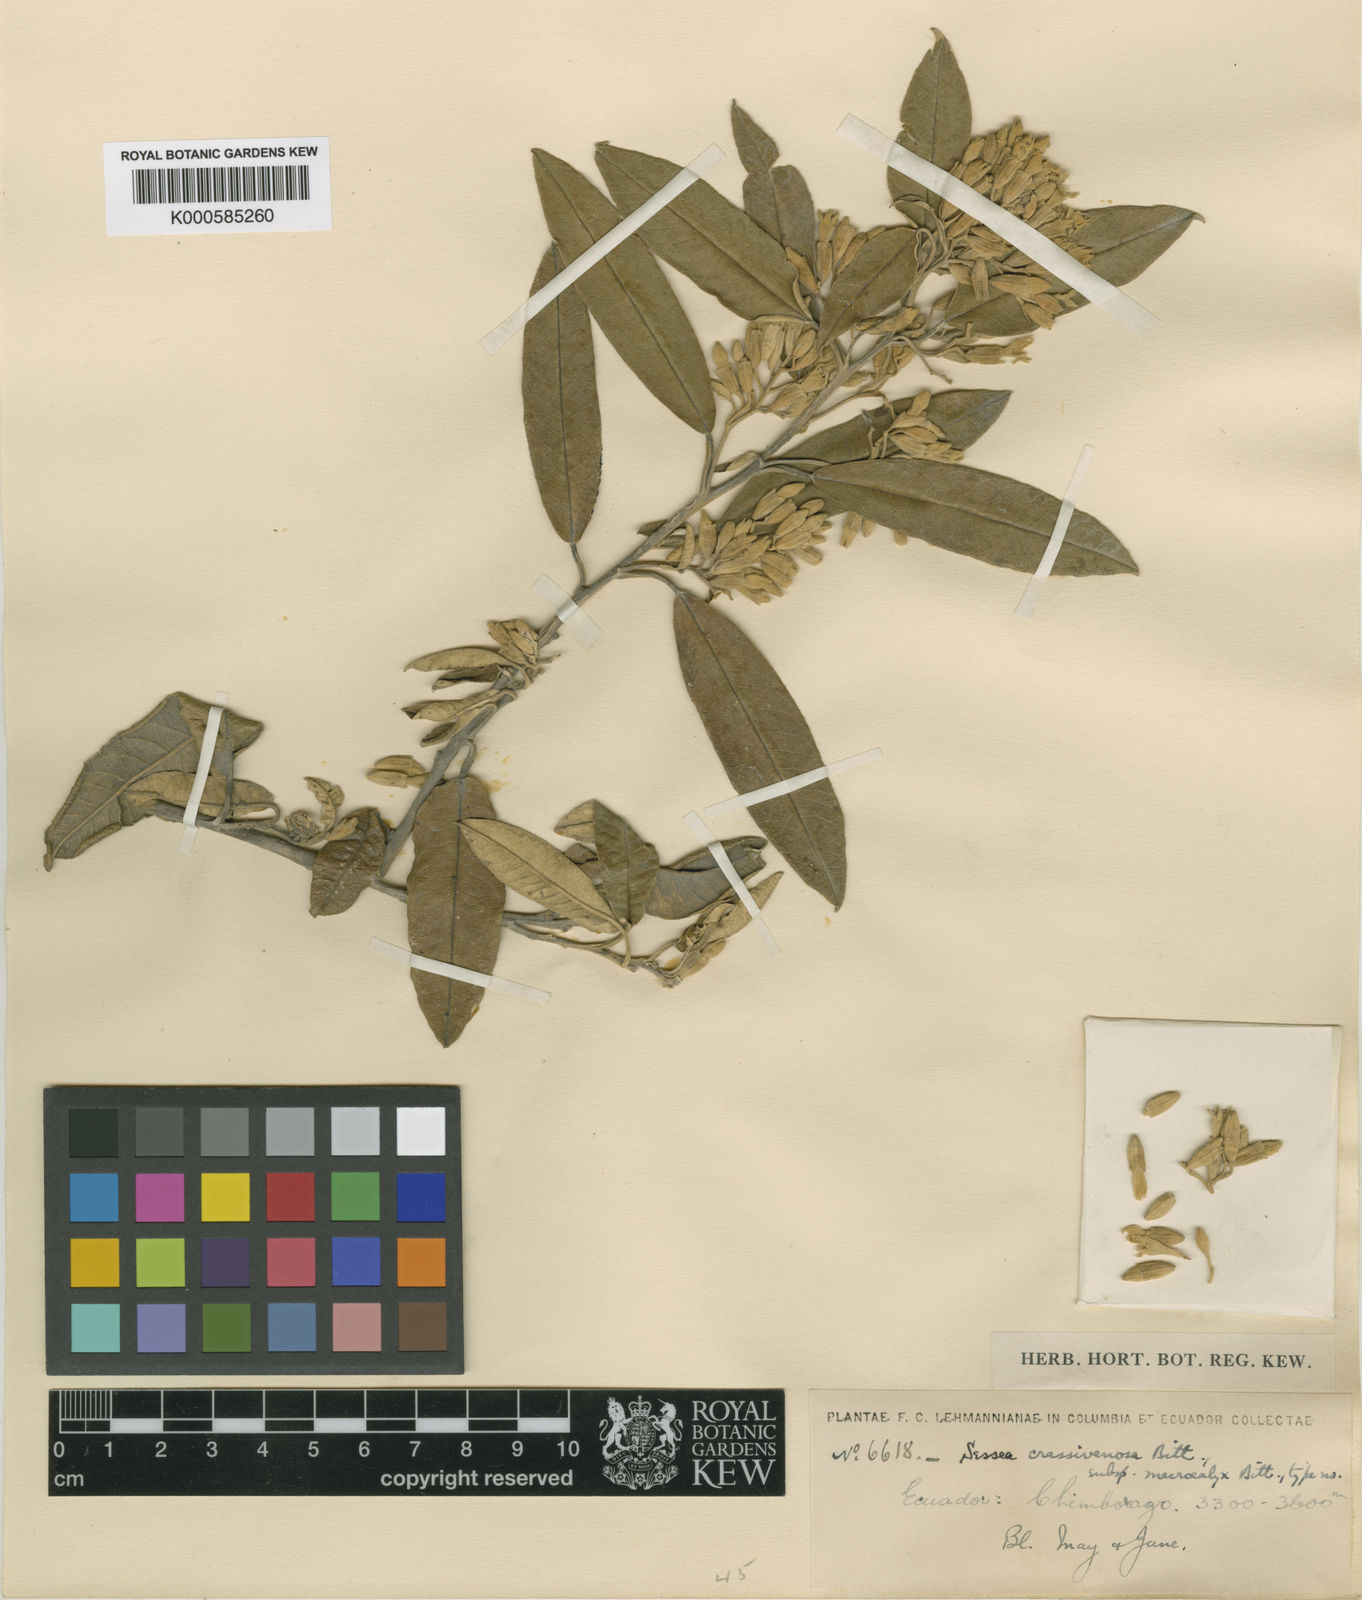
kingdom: Plantae
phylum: Tracheophyta
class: Magnoliopsida
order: Solanales
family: Solanaceae
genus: Sessea
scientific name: Sessea crassivenosa
